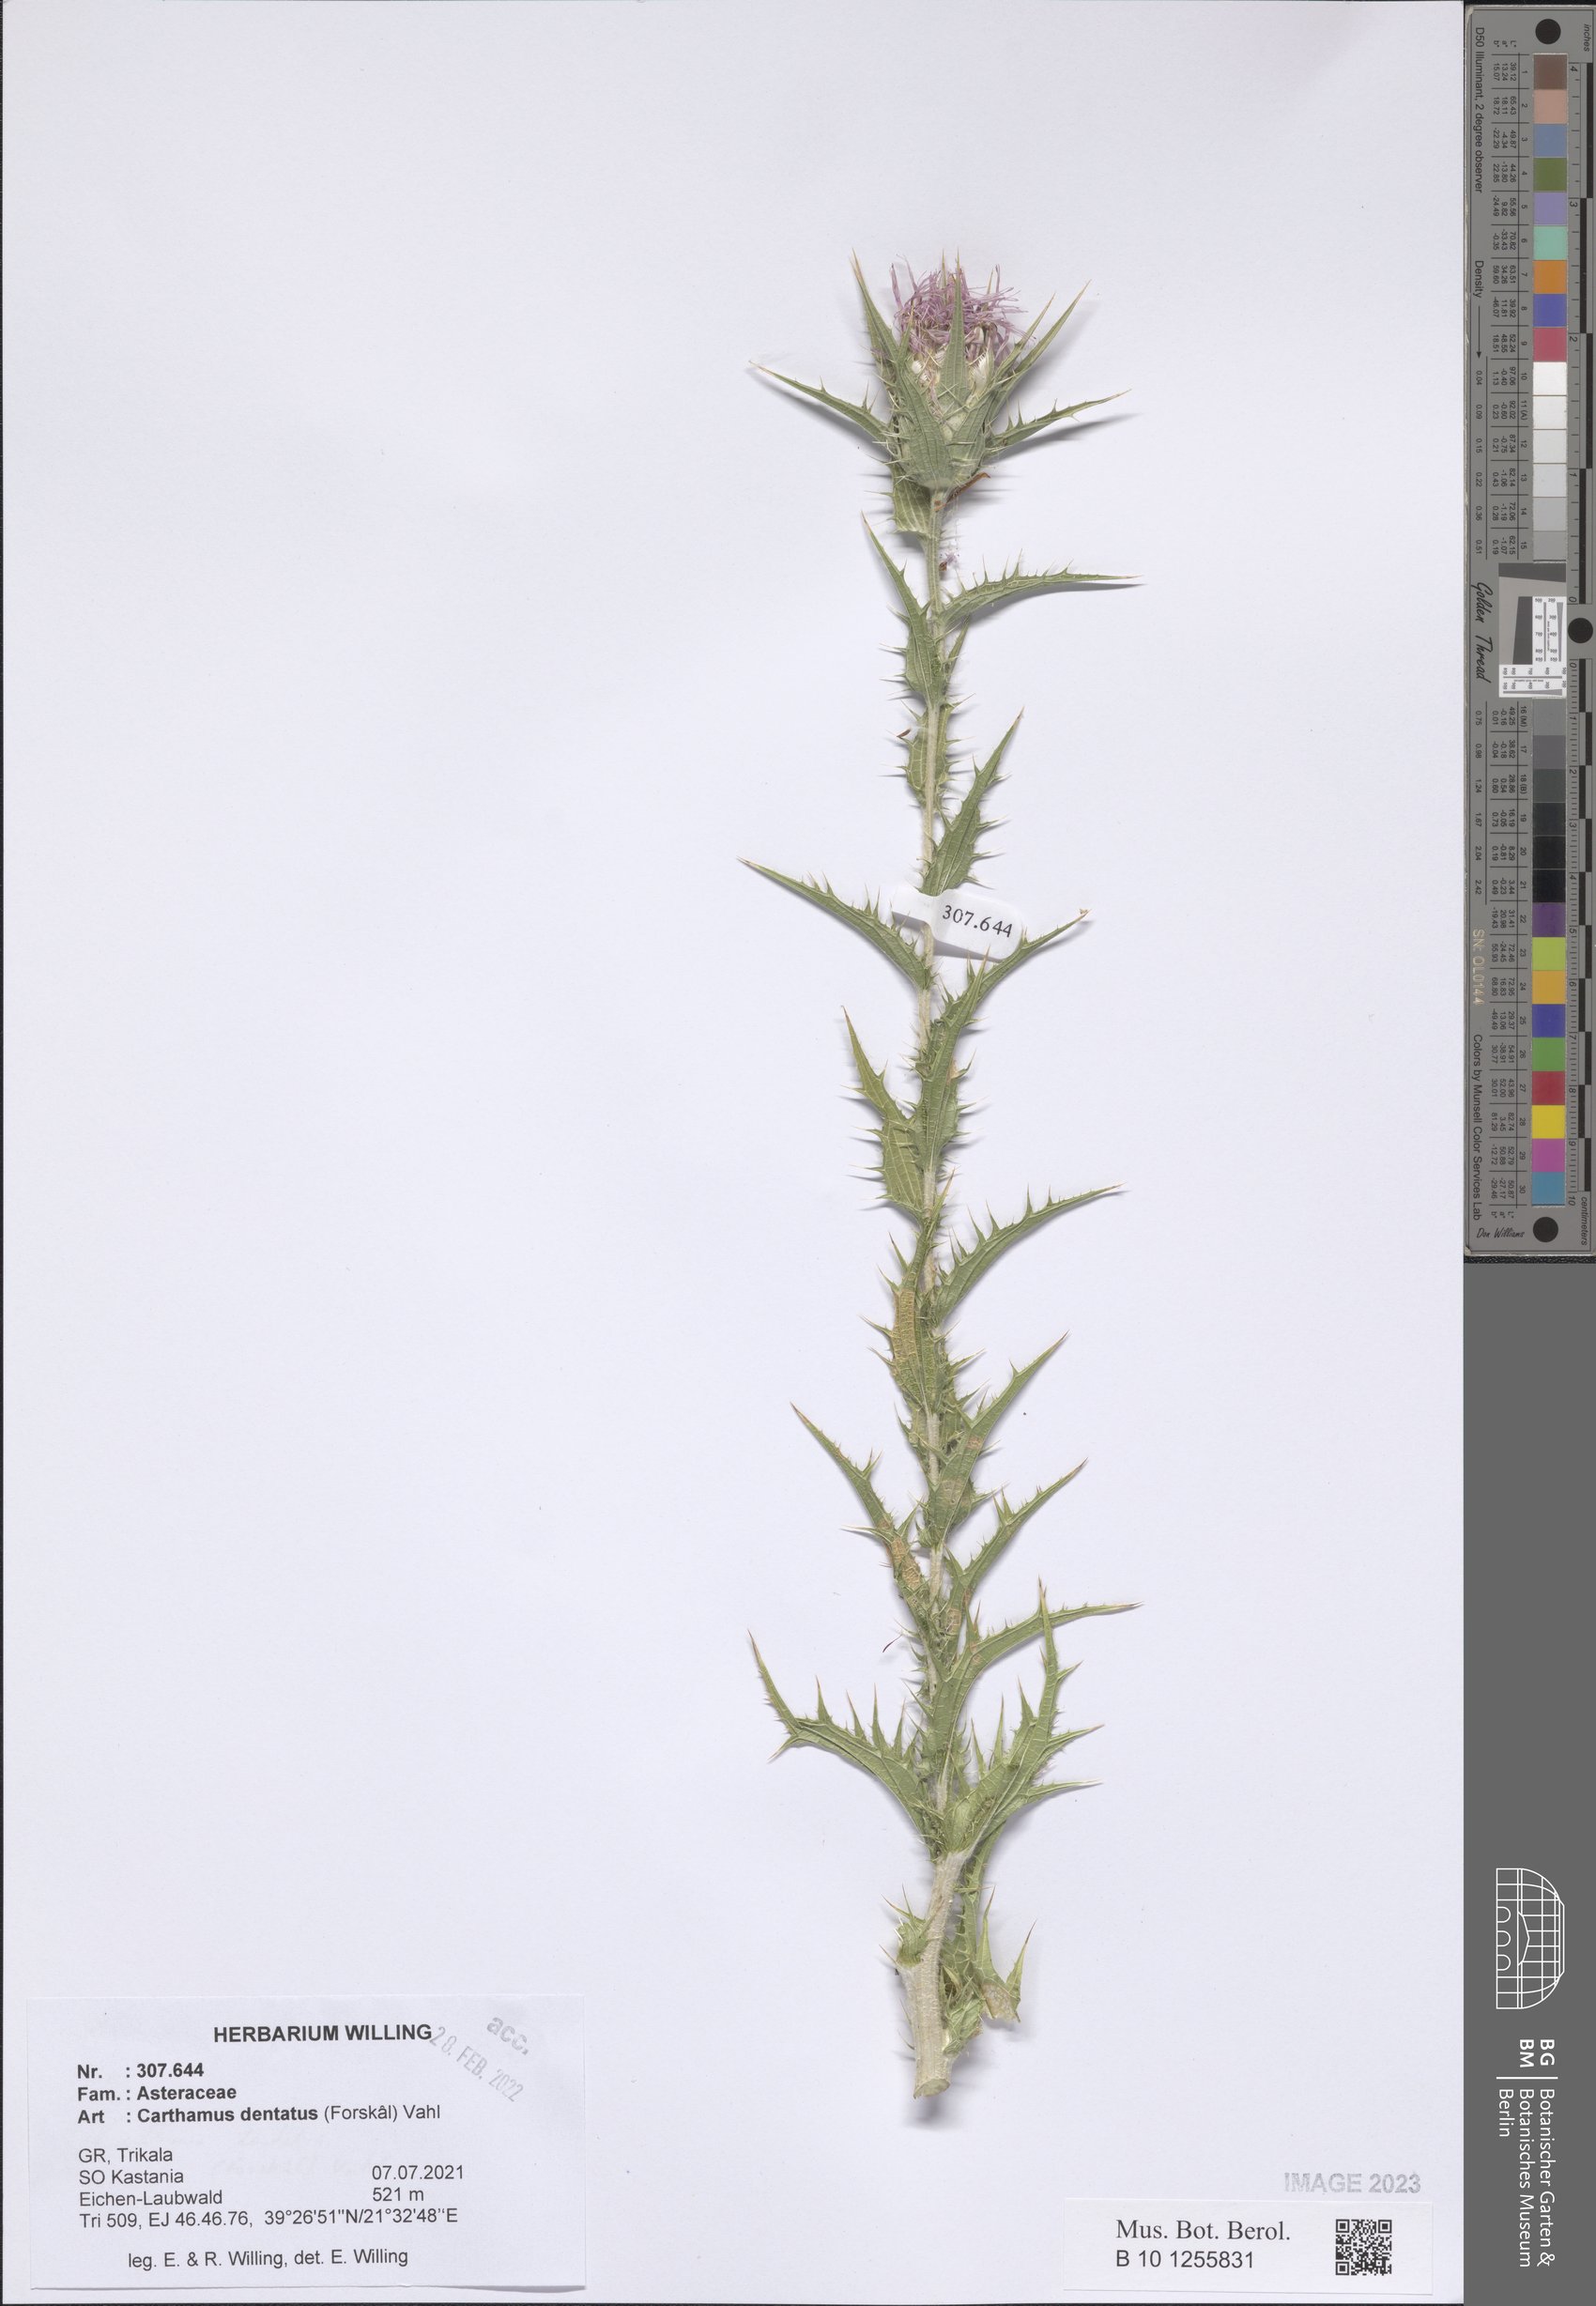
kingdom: Plantae
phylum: Tracheophyta
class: Magnoliopsida
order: Asterales
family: Asteraceae
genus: Carthamus
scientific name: Carthamus dentatus
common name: Toothed thistle
